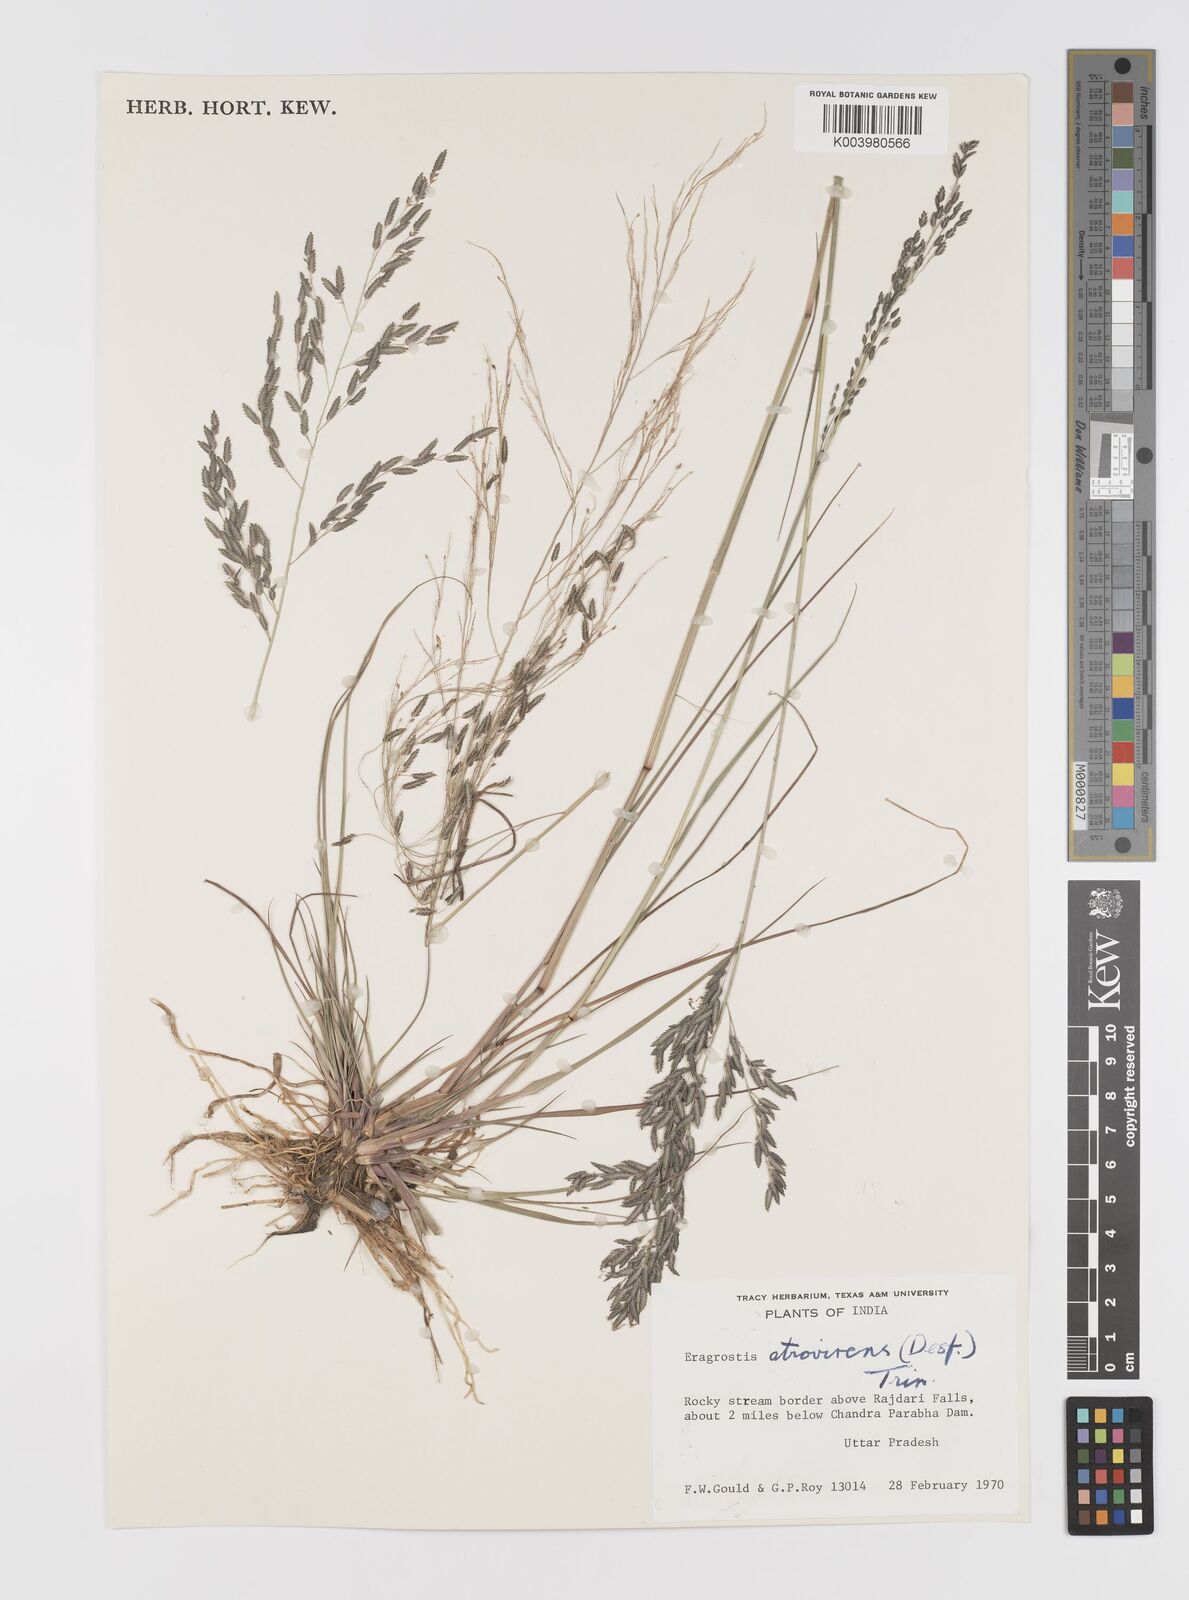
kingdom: Plantae
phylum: Tracheophyta
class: Liliopsida
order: Poales
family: Poaceae
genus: Eragrostis
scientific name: Eragrostis atrovirens
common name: Thalia lovegrass
